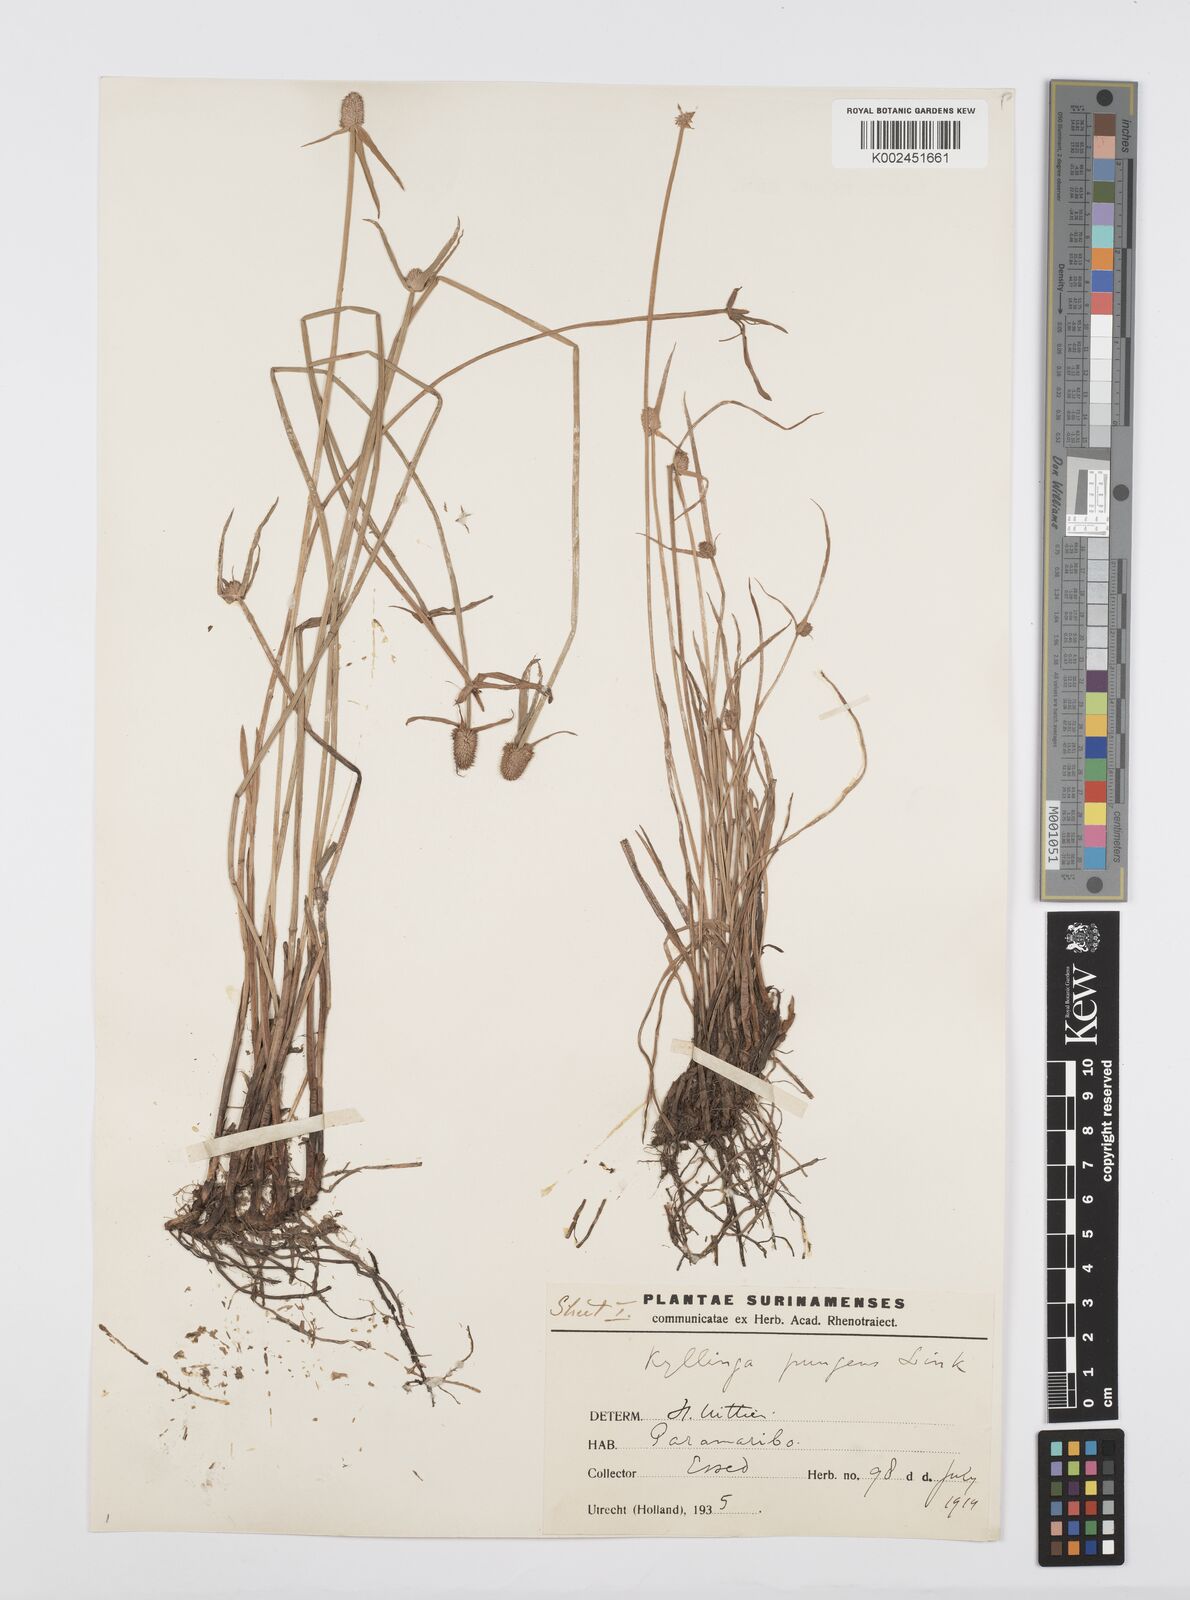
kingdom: Plantae
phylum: Tracheophyta
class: Liliopsida
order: Poales
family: Cyperaceae
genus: Cyperus
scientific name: Cyperus obtusatus
